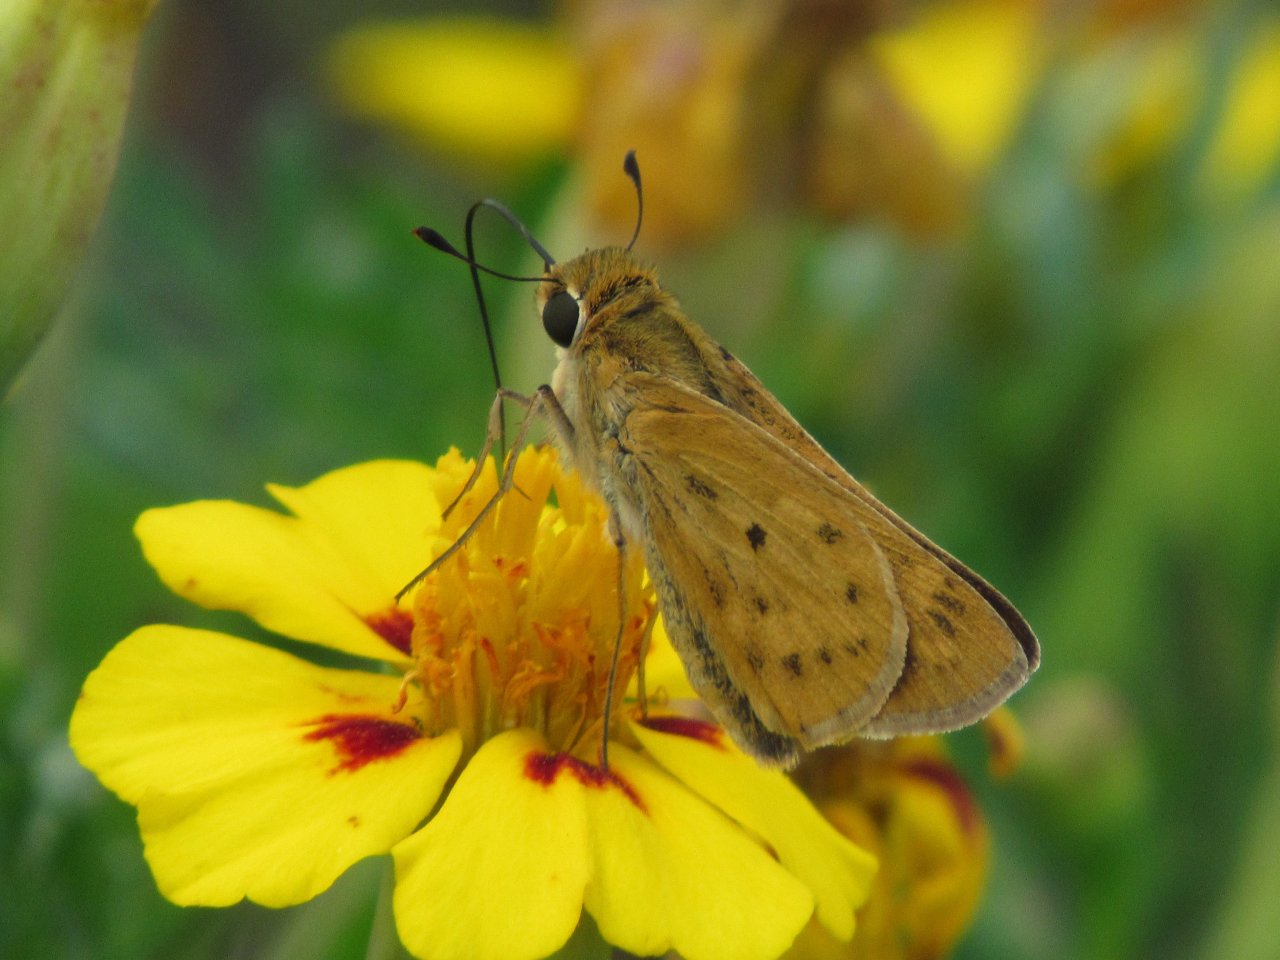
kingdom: Animalia
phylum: Arthropoda
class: Insecta
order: Lepidoptera
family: Hesperiidae
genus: Hylephila
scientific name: Hylephila phyleus
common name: Fiery Skipper
